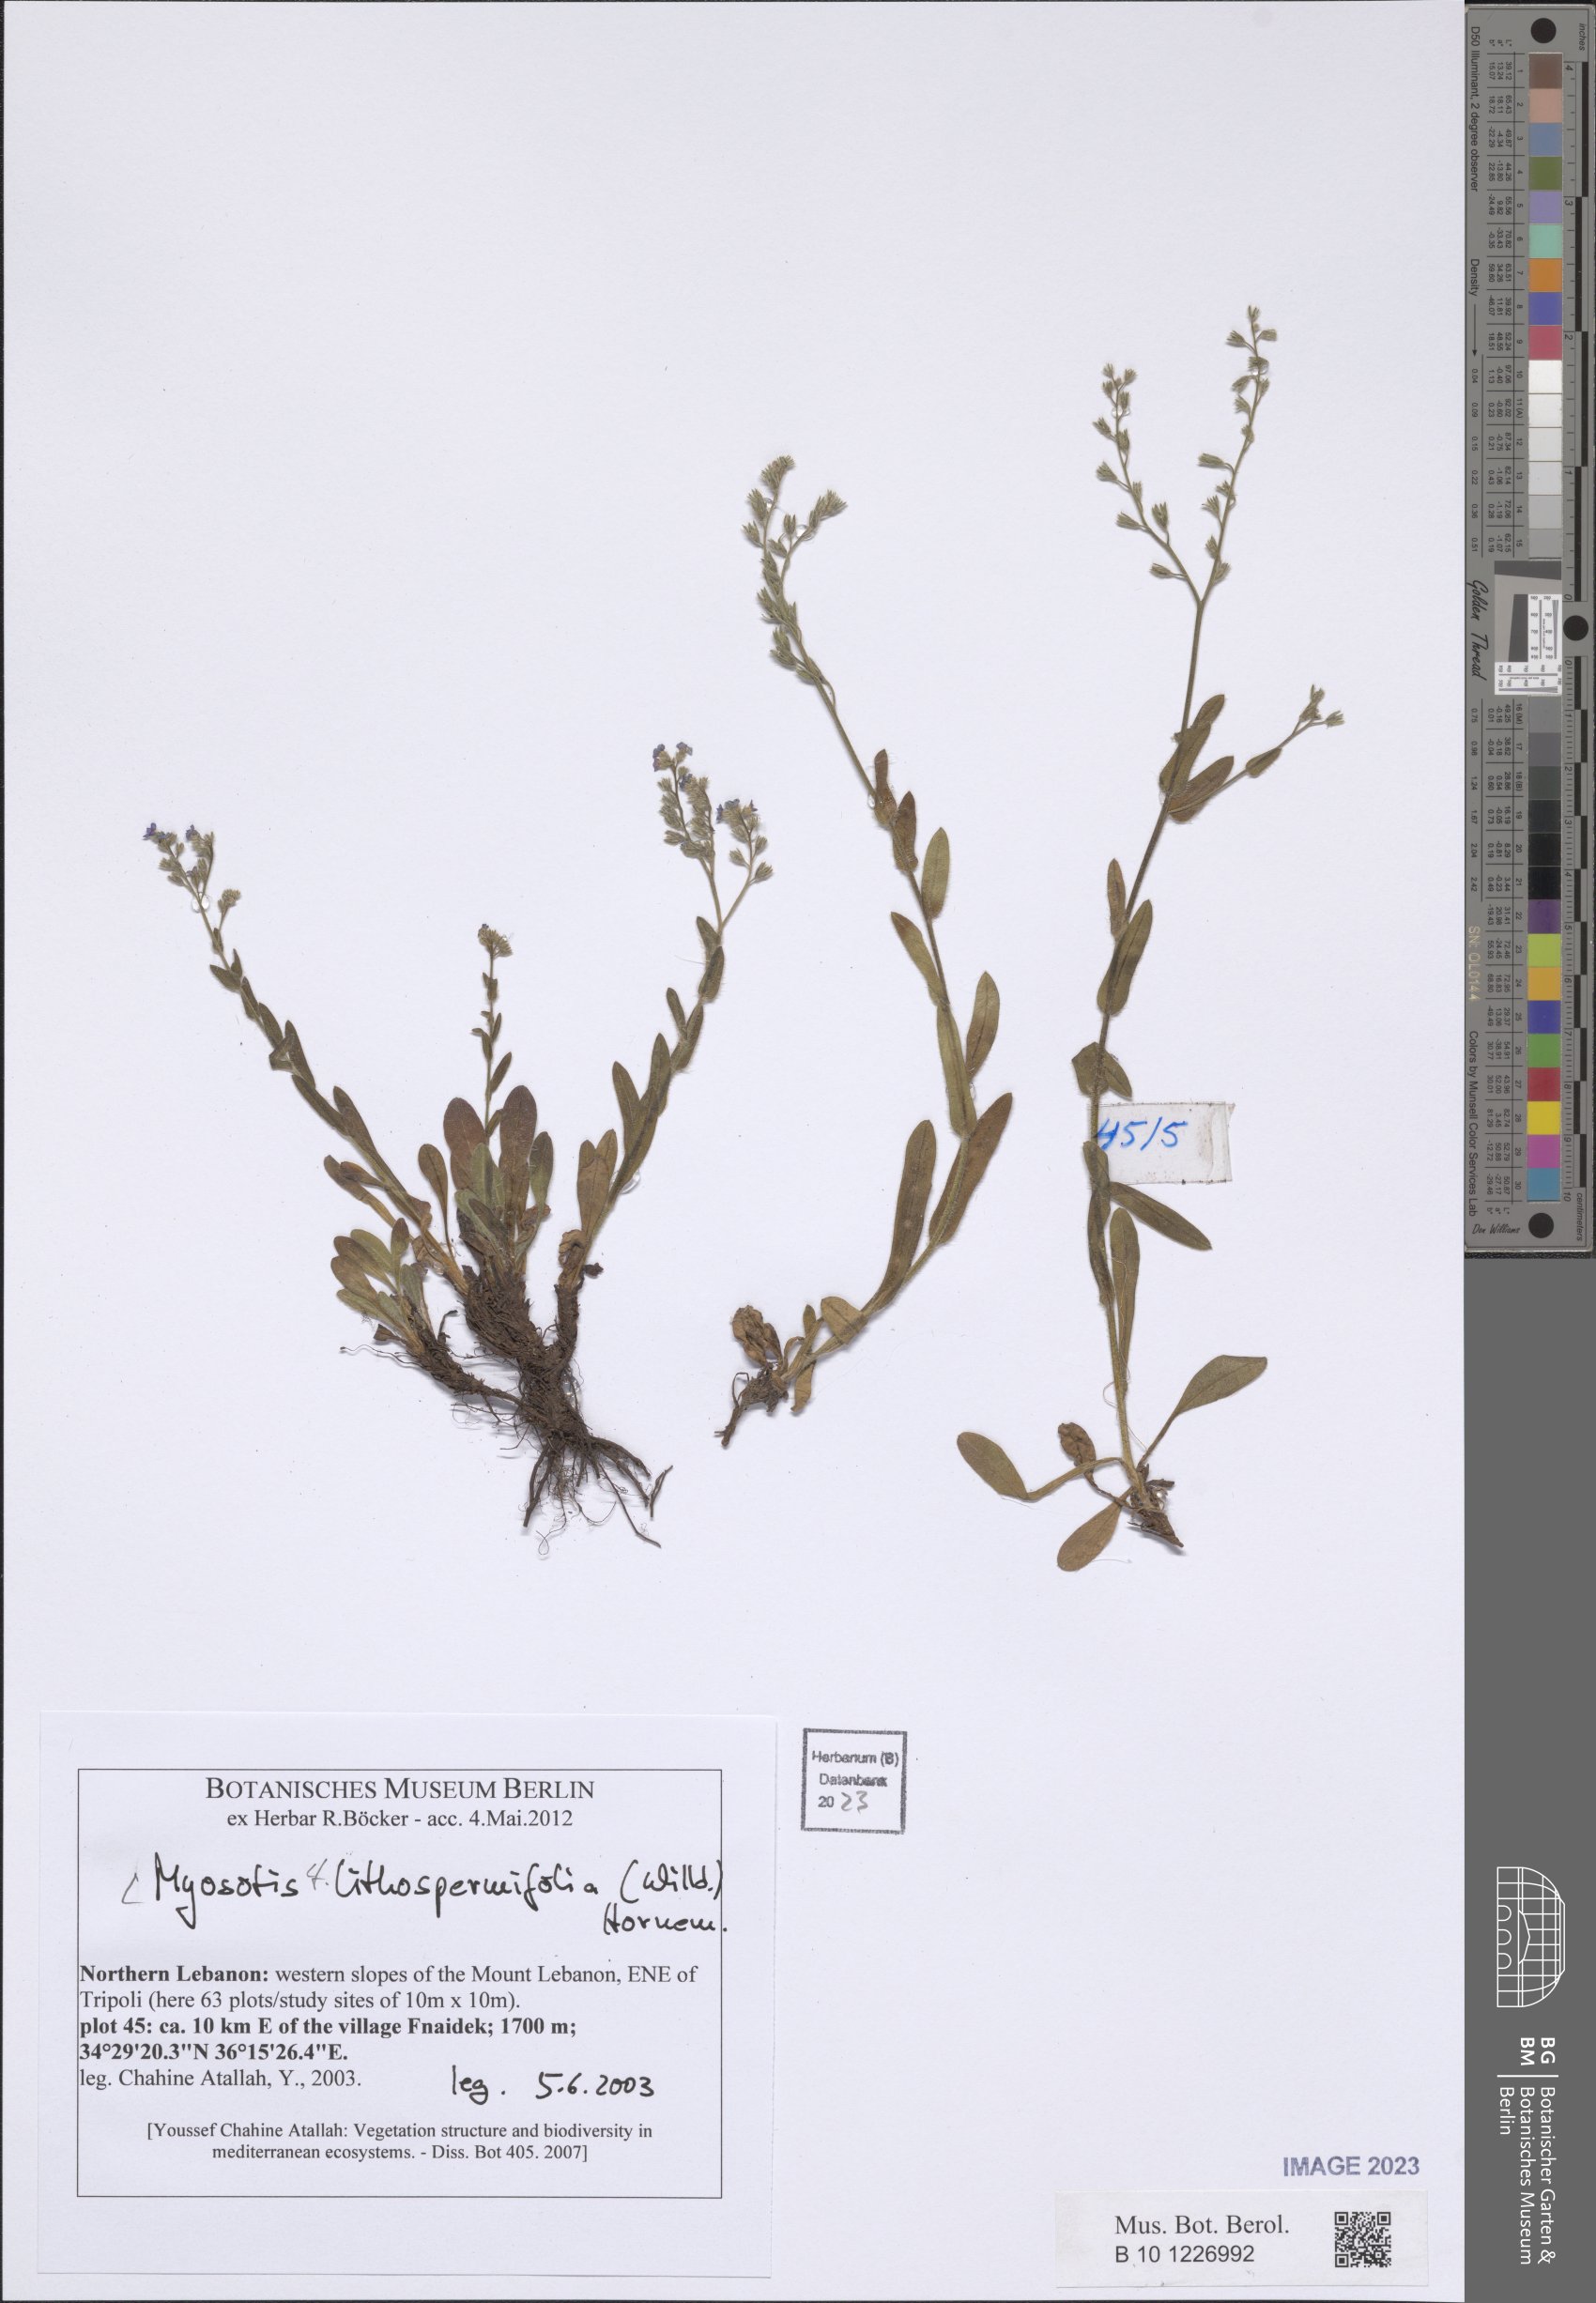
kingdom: Plantae
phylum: Tracheophyta
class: Magnoliopsida
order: Boraginales
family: Boraginaceae
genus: Myosotis
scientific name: Myosotis lithospermifolia
